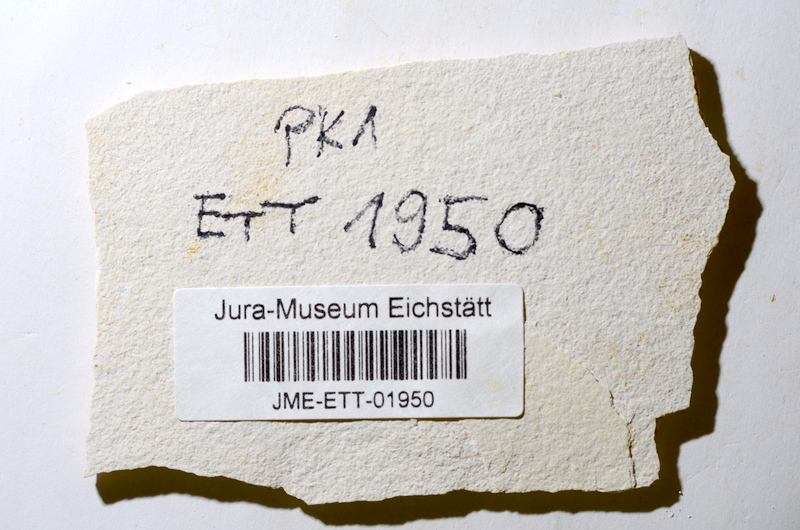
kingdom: Animalia
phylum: Chordata
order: Salmoniformes
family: Orthogonikleithridae
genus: Orthogonikleithrus
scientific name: Orthogonikleithrus hoelli
